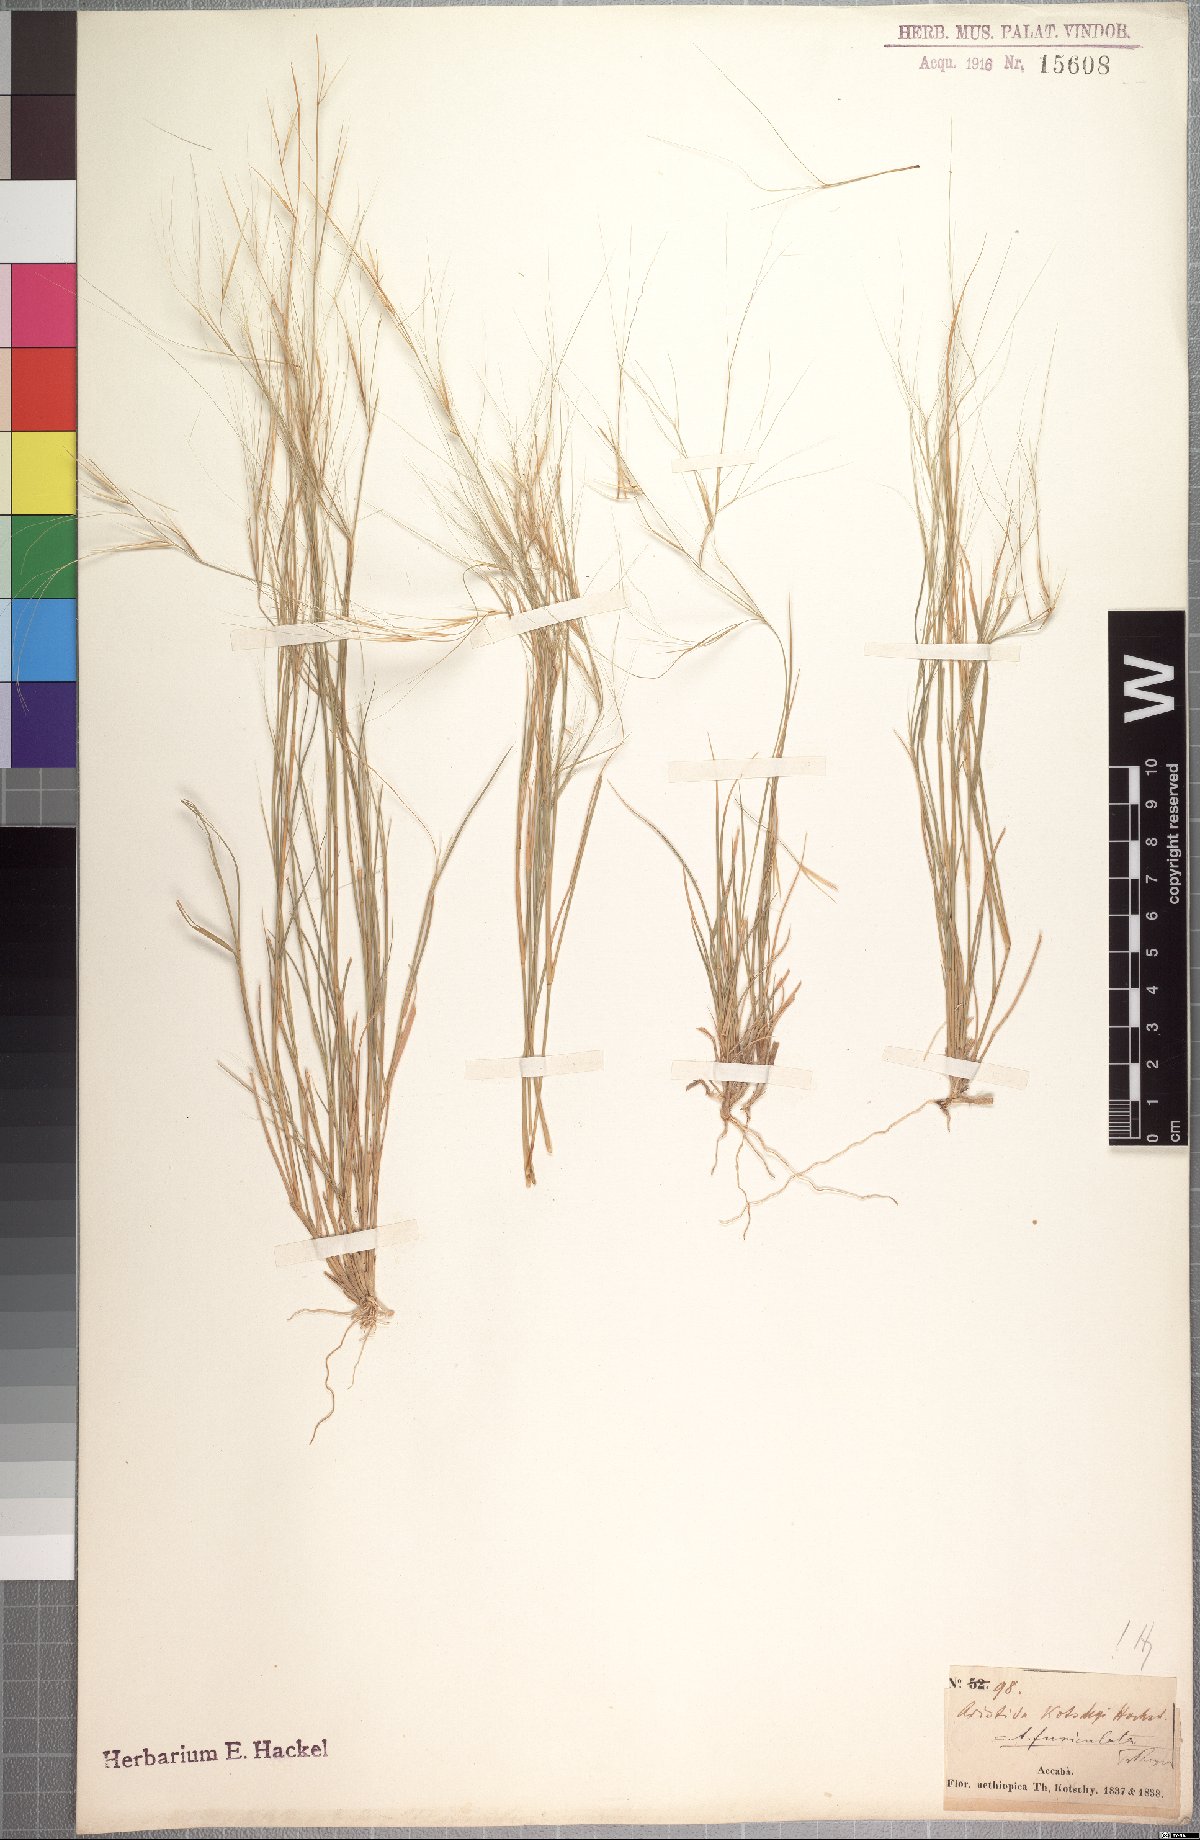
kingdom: Plantae
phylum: Tracheophyta
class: Liliopsida
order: Poales
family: Poaceae
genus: Aristida
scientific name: Aristida funiculata
